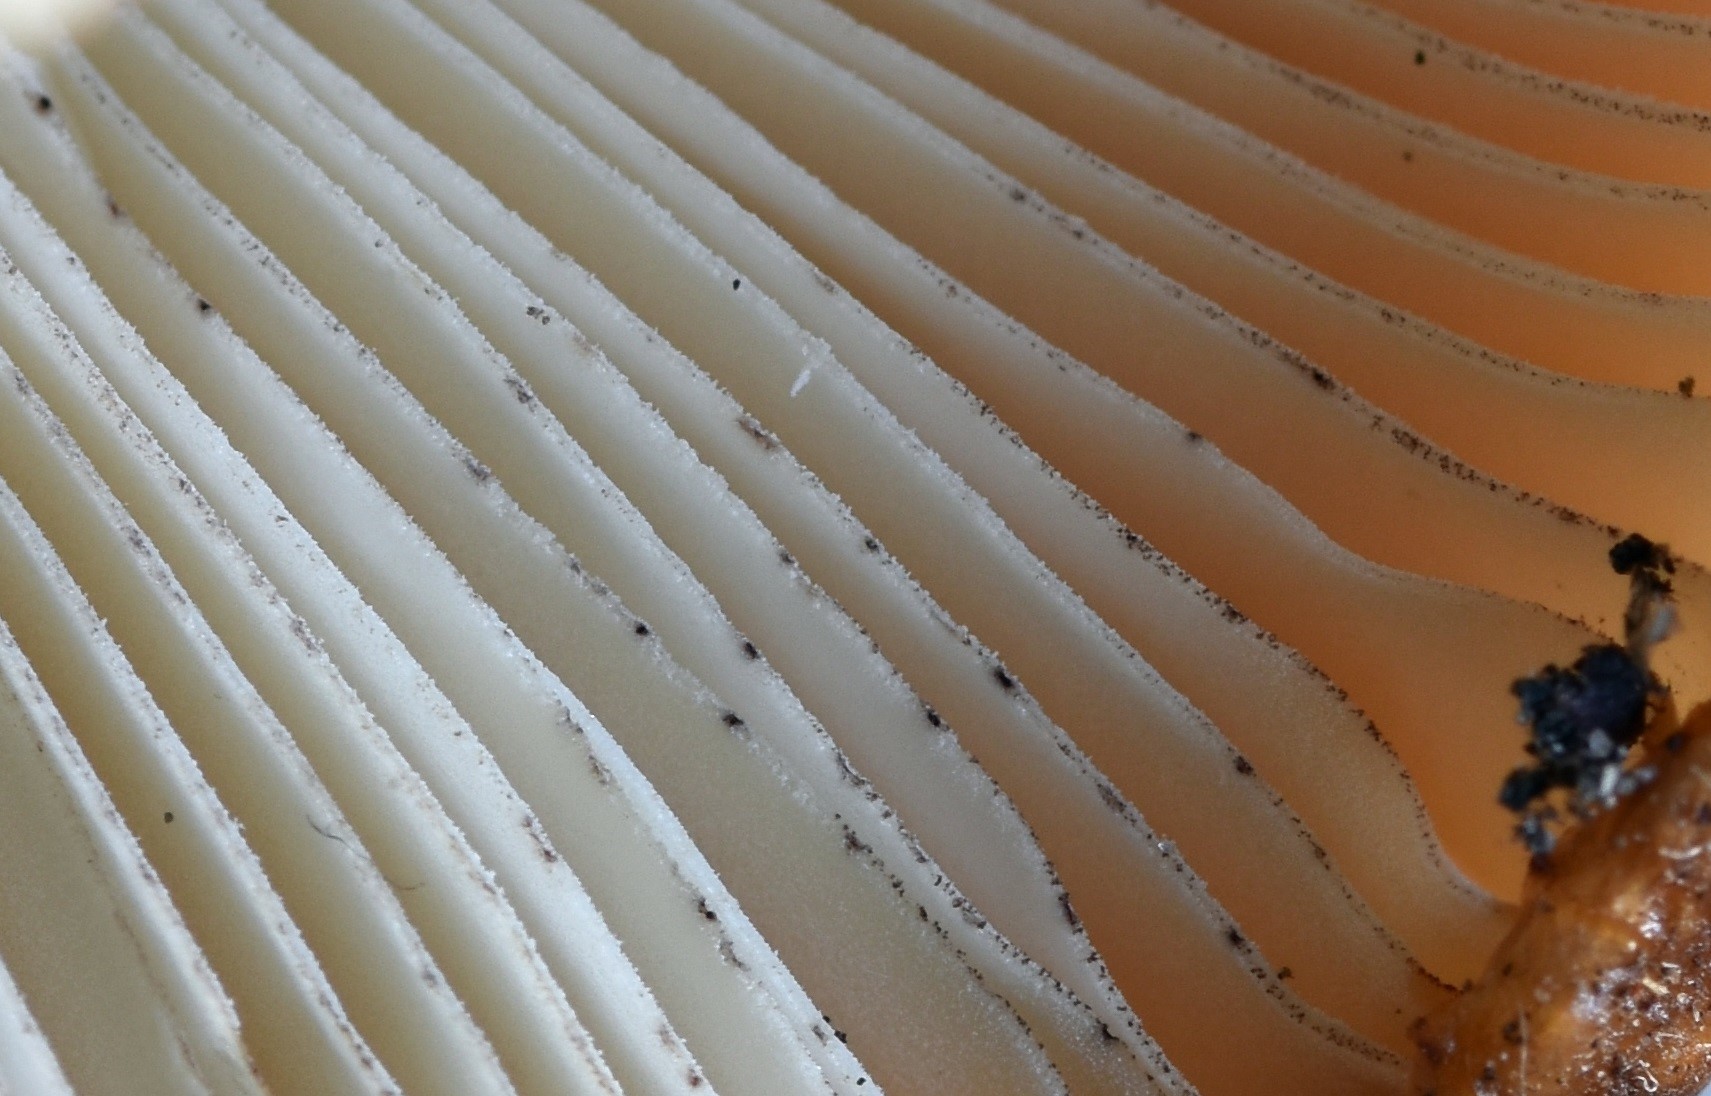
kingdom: Fungi
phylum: Basidiomycota
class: Agaricomycetes
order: Russulales
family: Russulaceae
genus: Russula
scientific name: Russula illota
